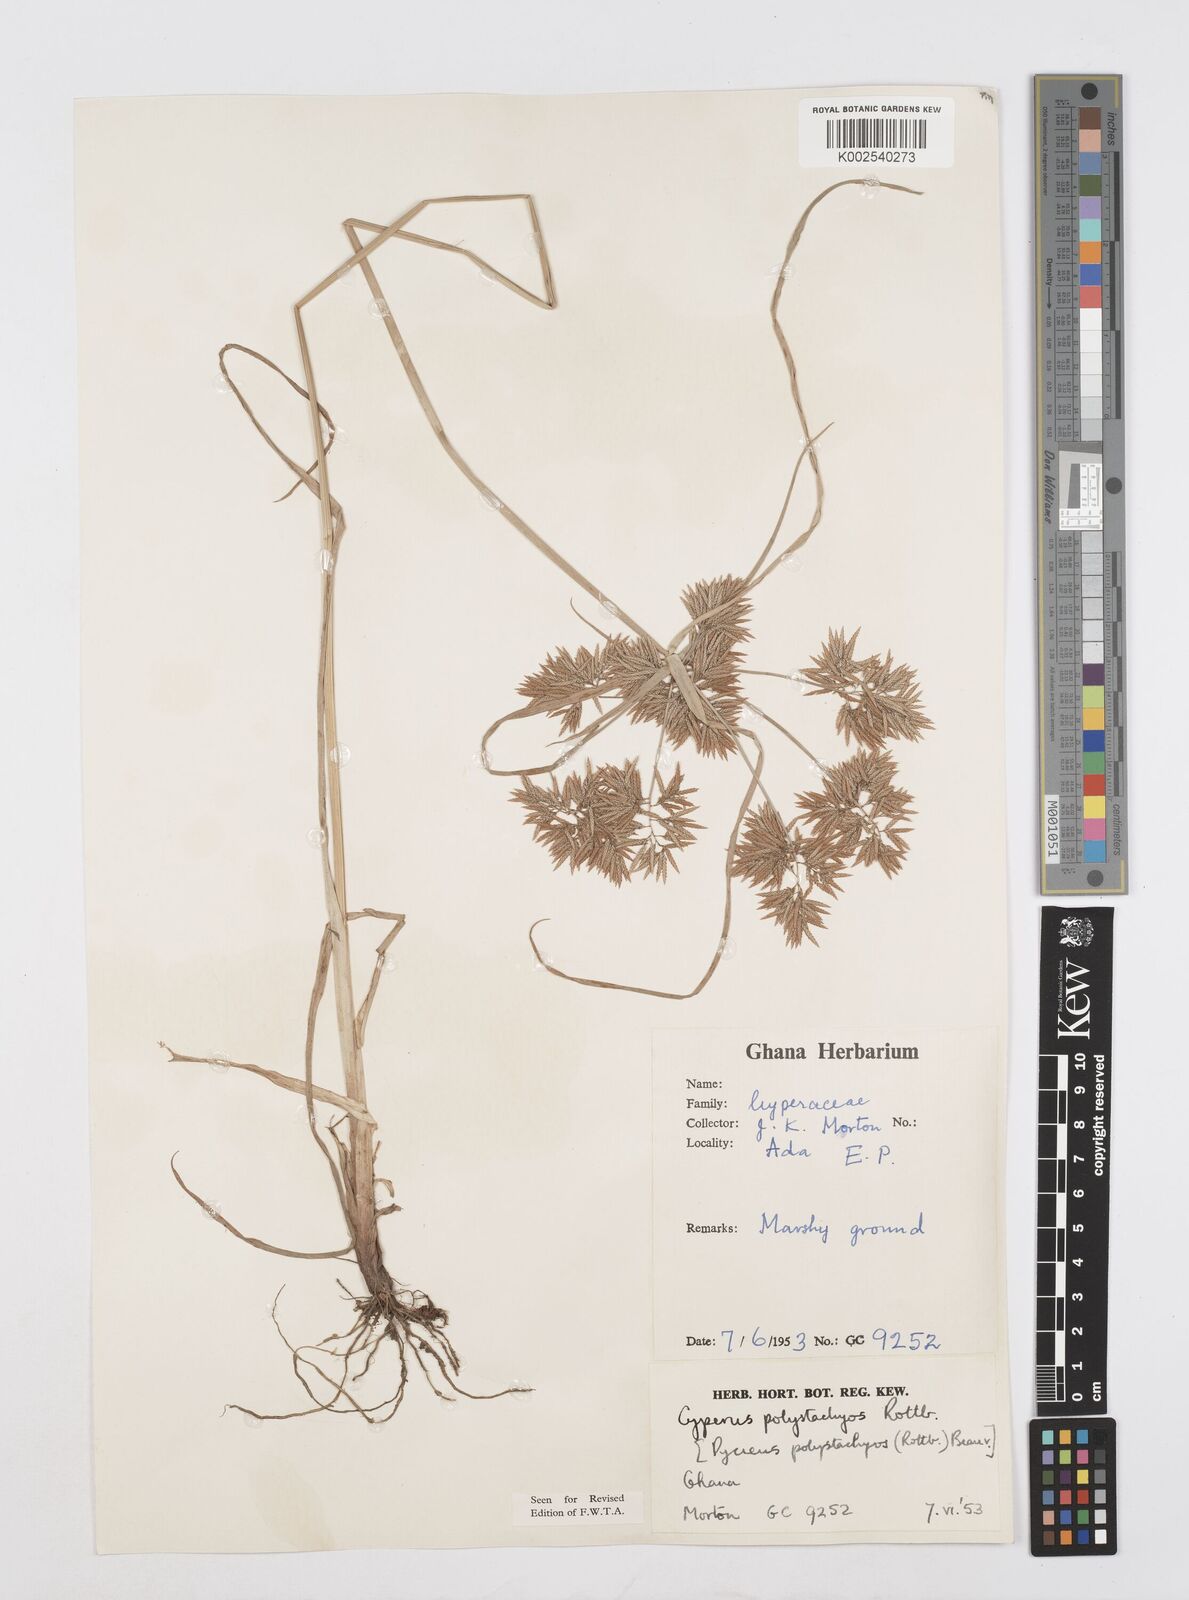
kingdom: Plantae
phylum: Tracheophyta
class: Liliopsida
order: Poales
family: Cyperaceae
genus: Cyperus
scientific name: Cyperus polystachyos
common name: Bunchy flat sedge
